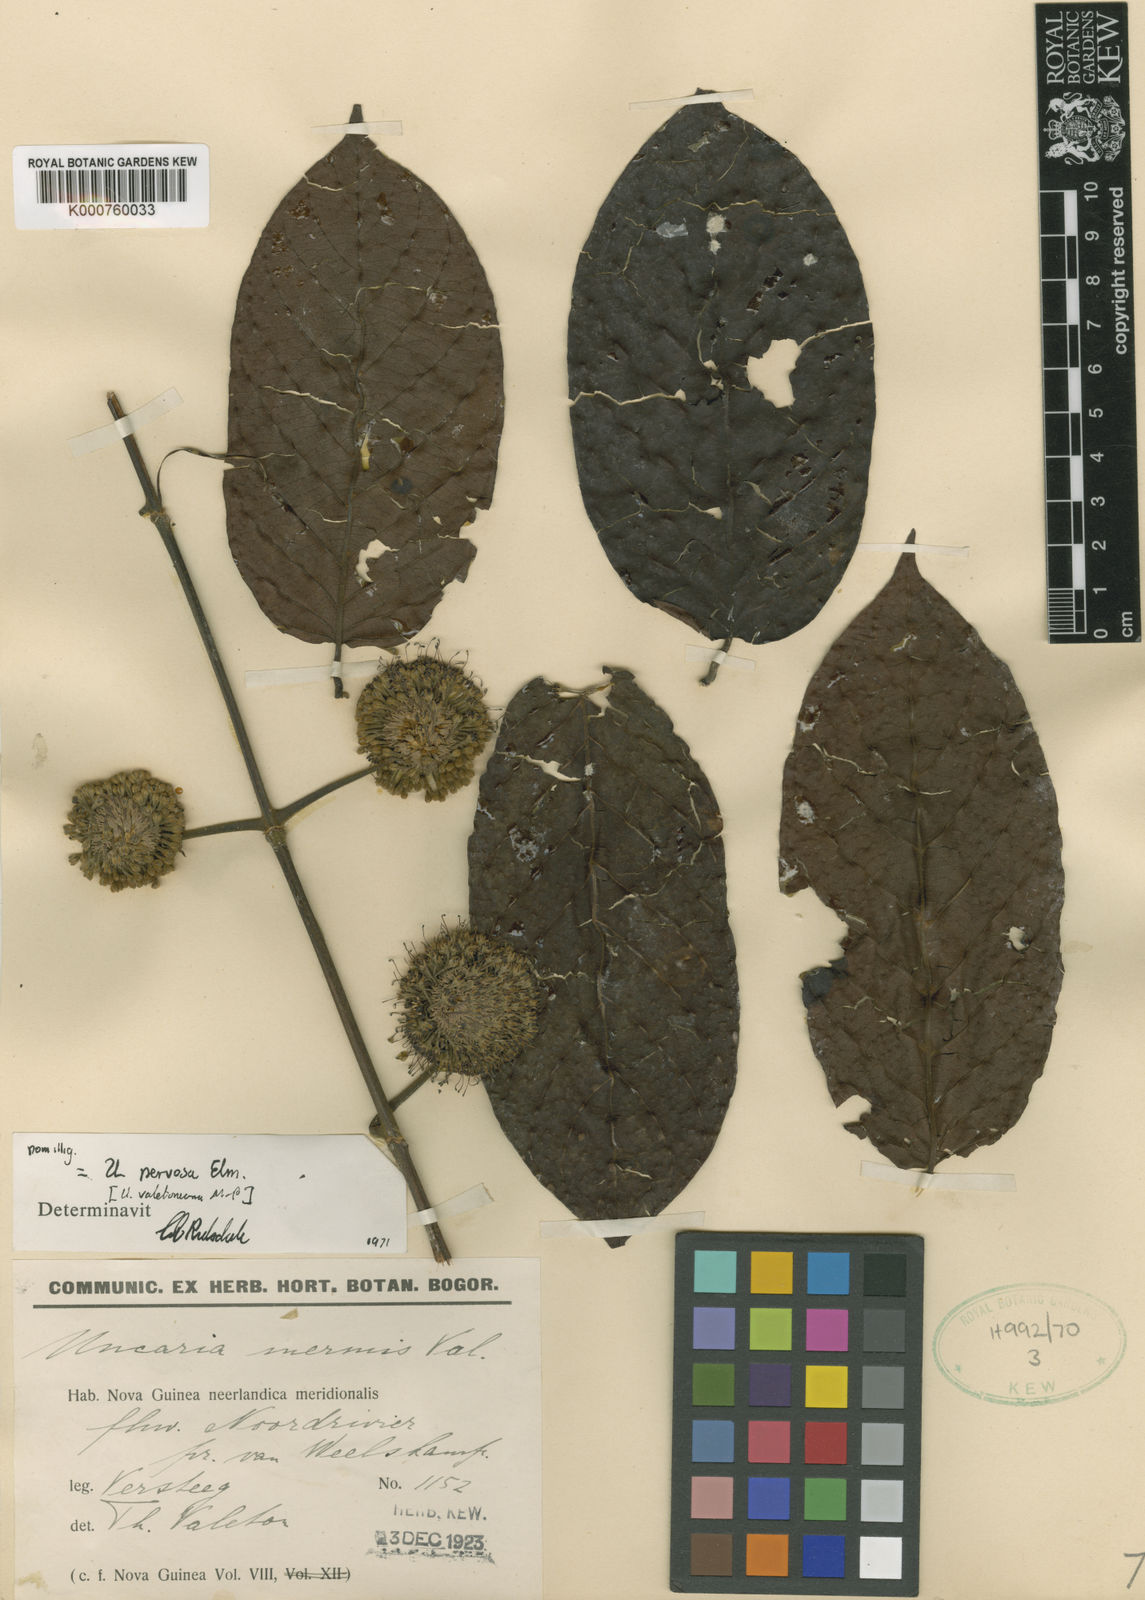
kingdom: Plantae
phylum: Tracheophyta
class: Magnoliopsida
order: Gentianales
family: Rubiaceae
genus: Uncaria
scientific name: Uncaria nervosa
